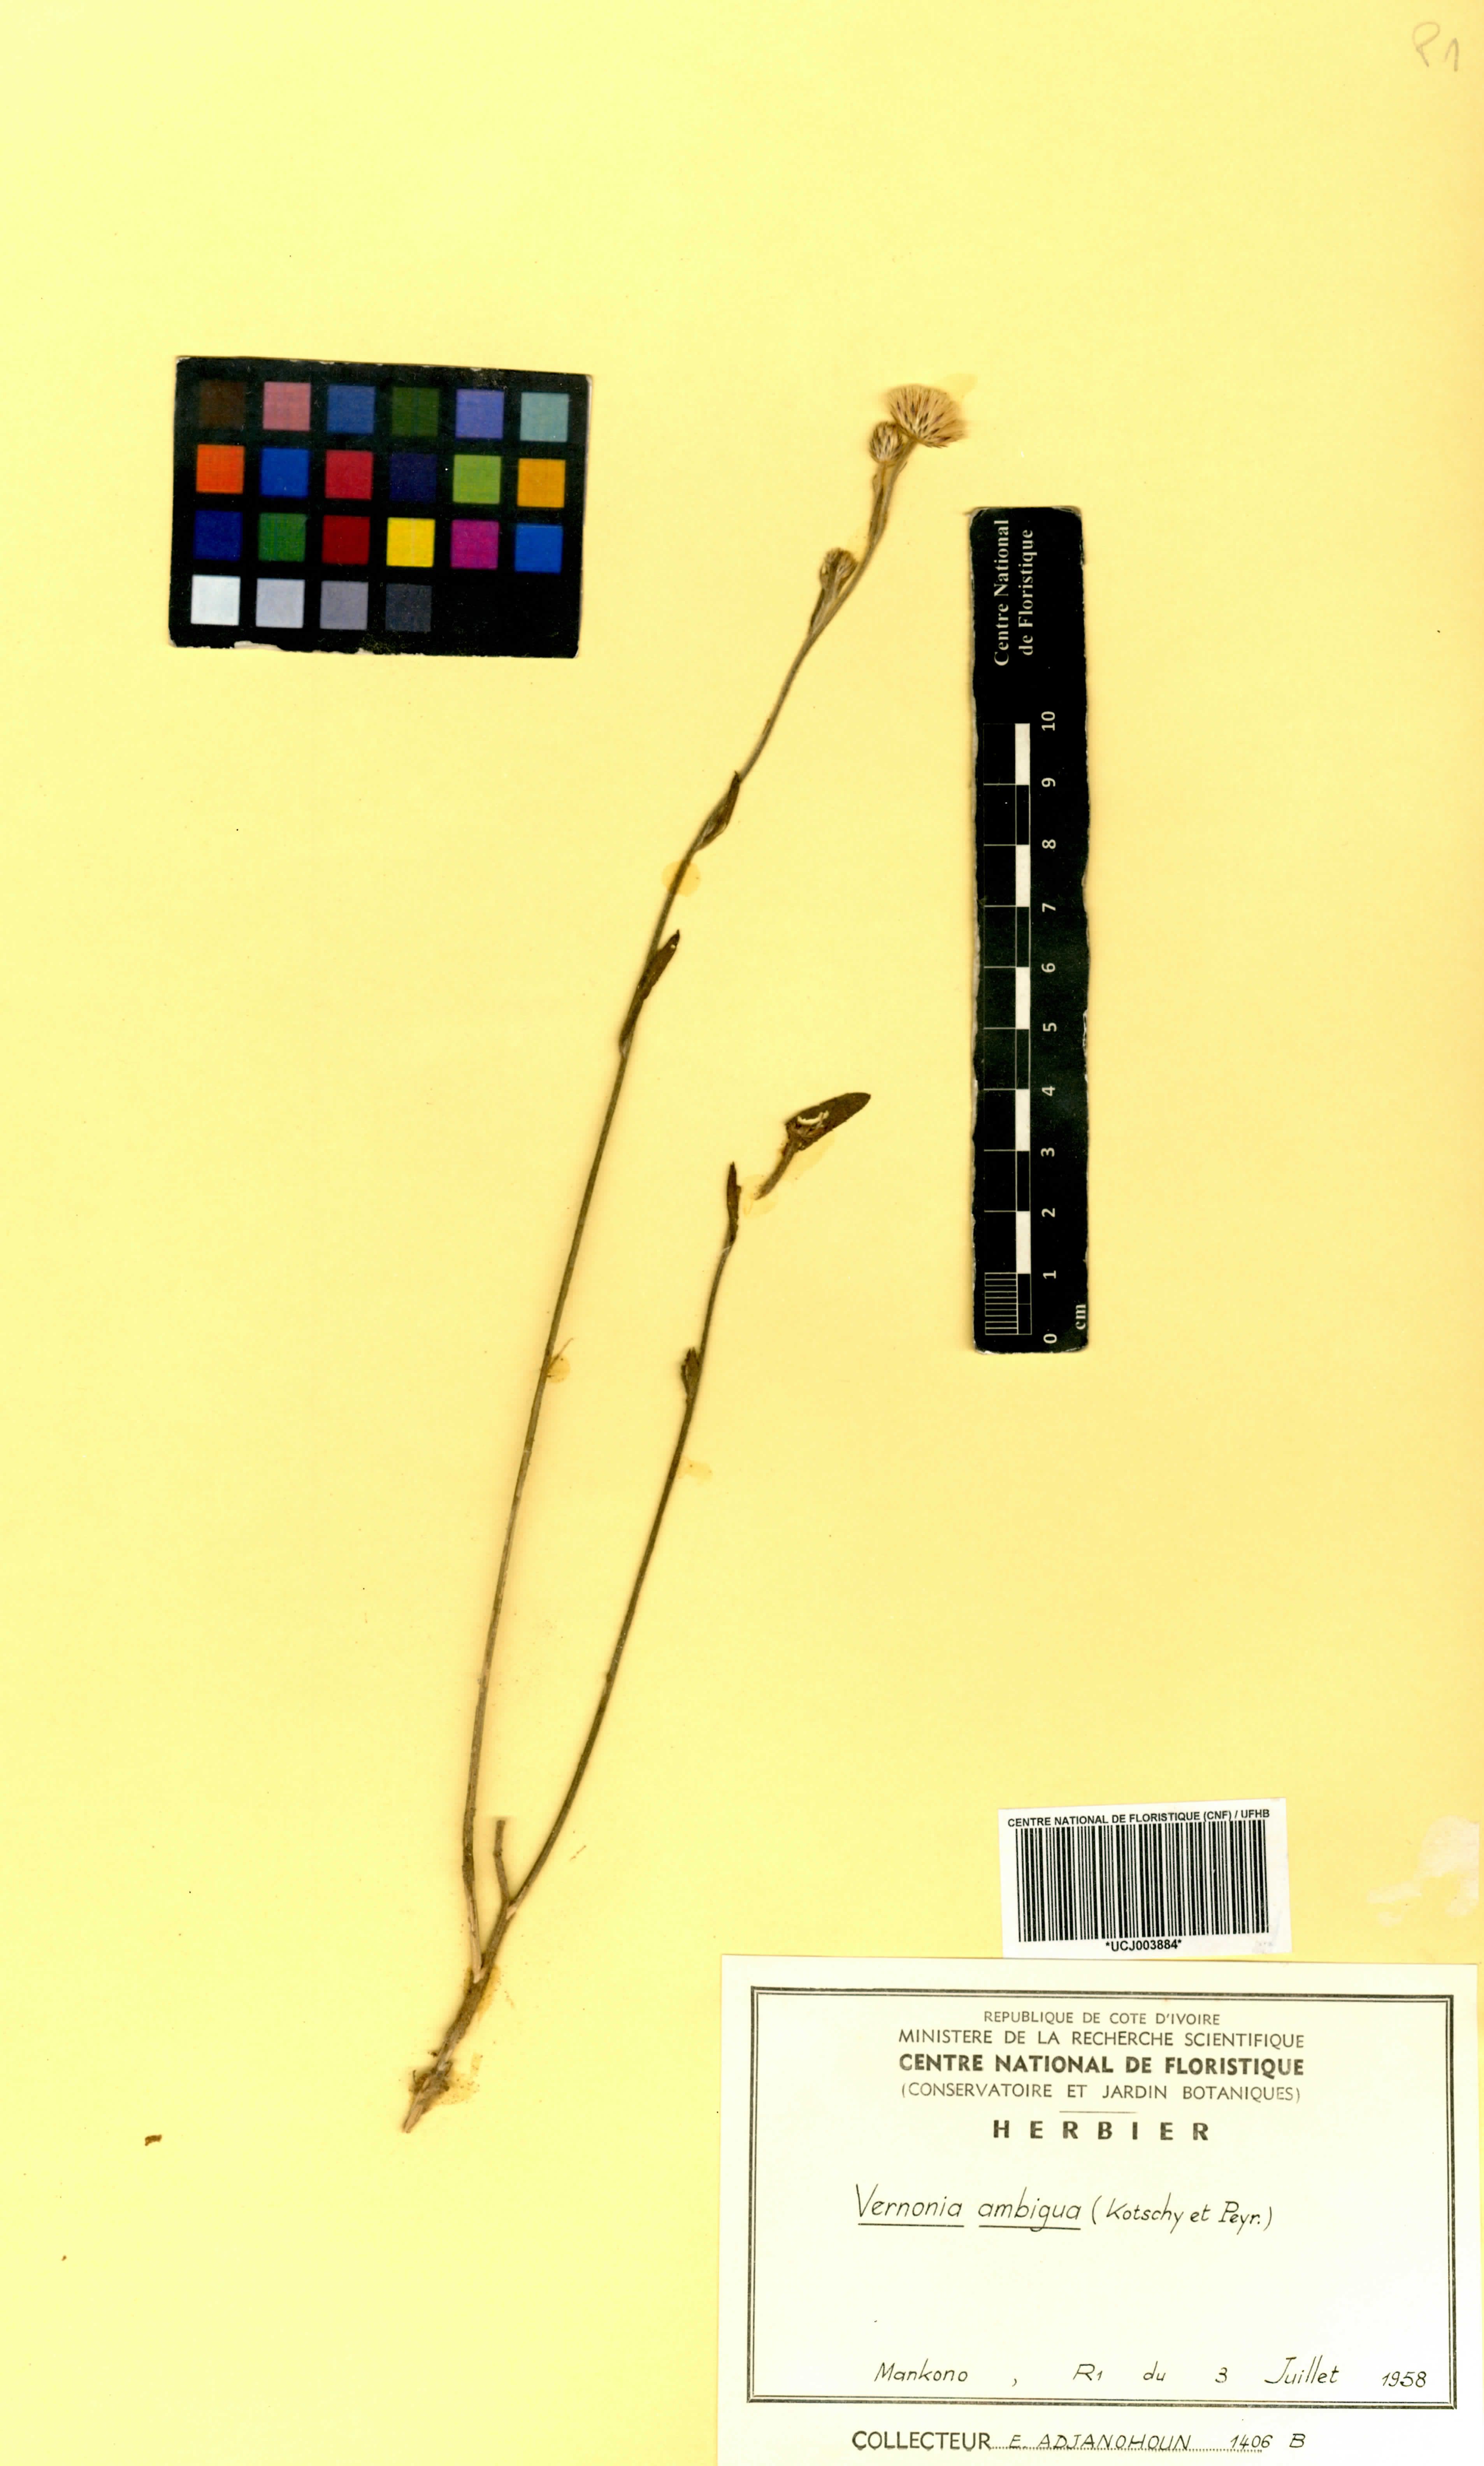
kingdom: Plantae
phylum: Tracheophyta
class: Magnoliopsida
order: Asterales
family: Asteraceae
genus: Vernoniastrum
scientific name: Vernoniastrum ambiguum
